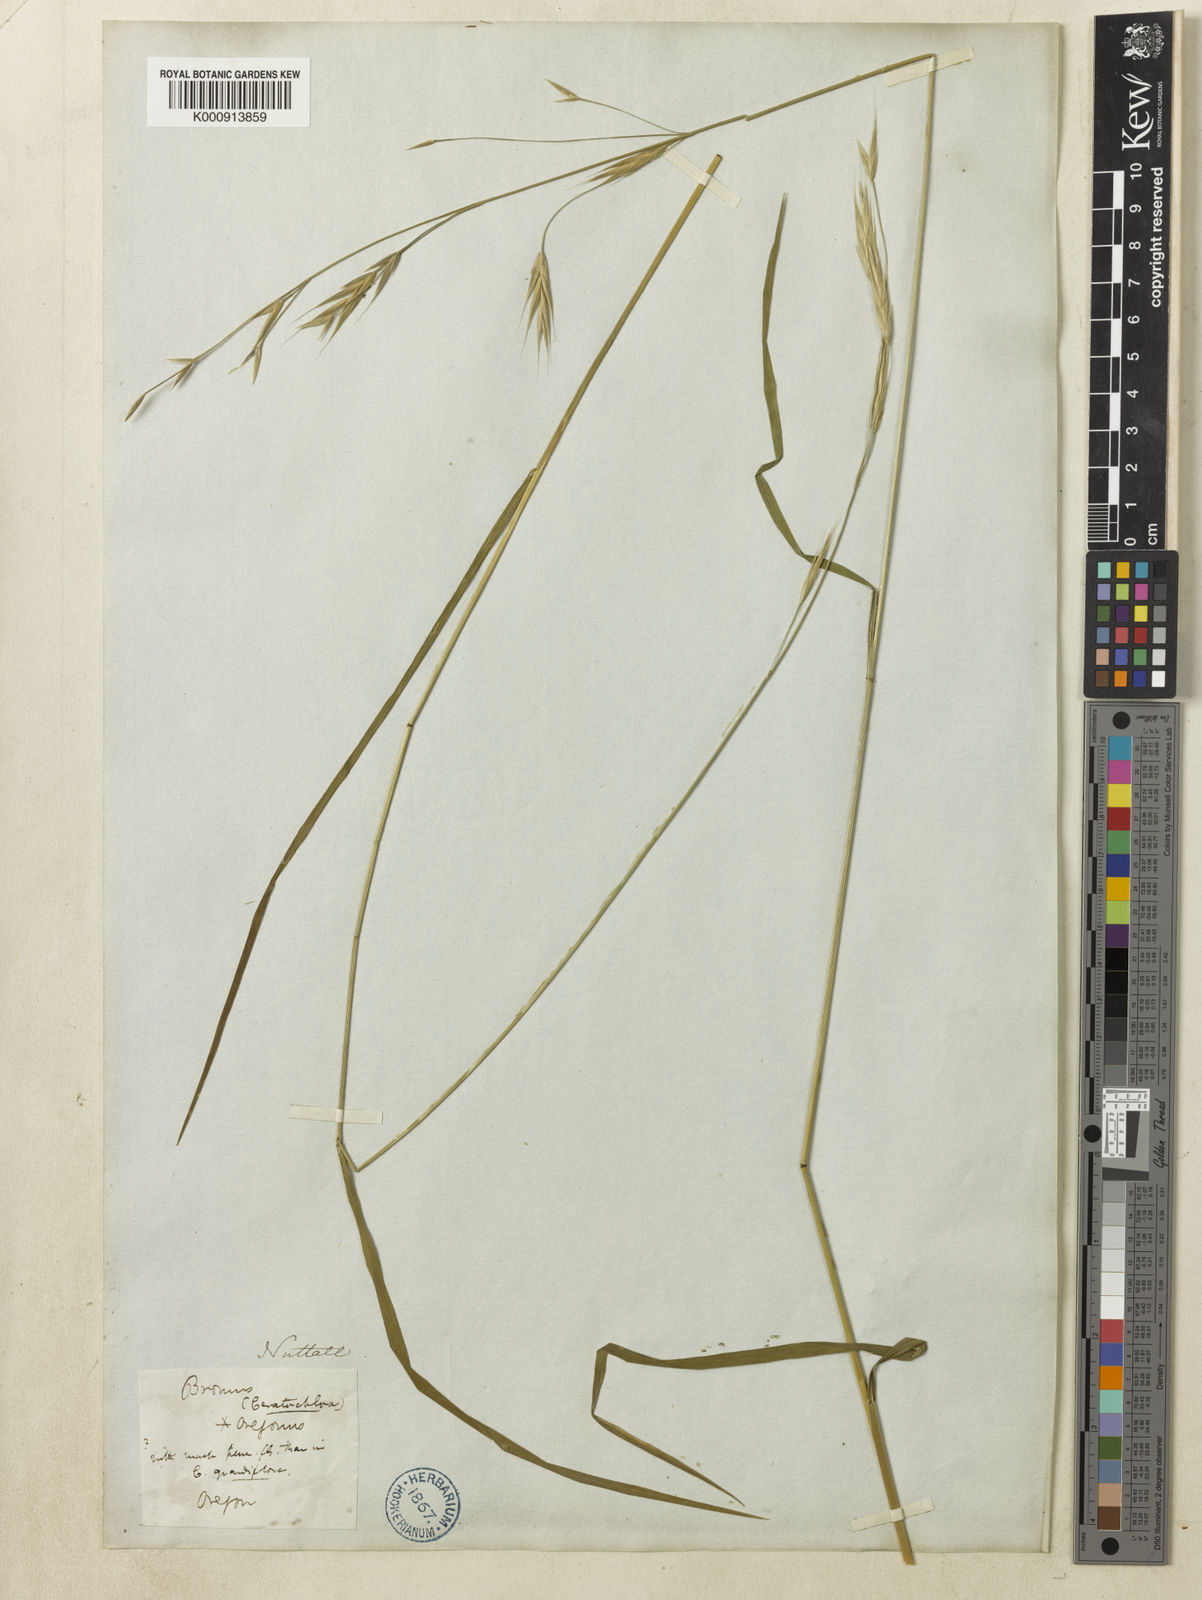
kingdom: Plantae
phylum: Tracheophyta
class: Liliopsida
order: Poales
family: Poaceae
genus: Bromus
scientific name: Bromus carinatus
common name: Mountain brome
